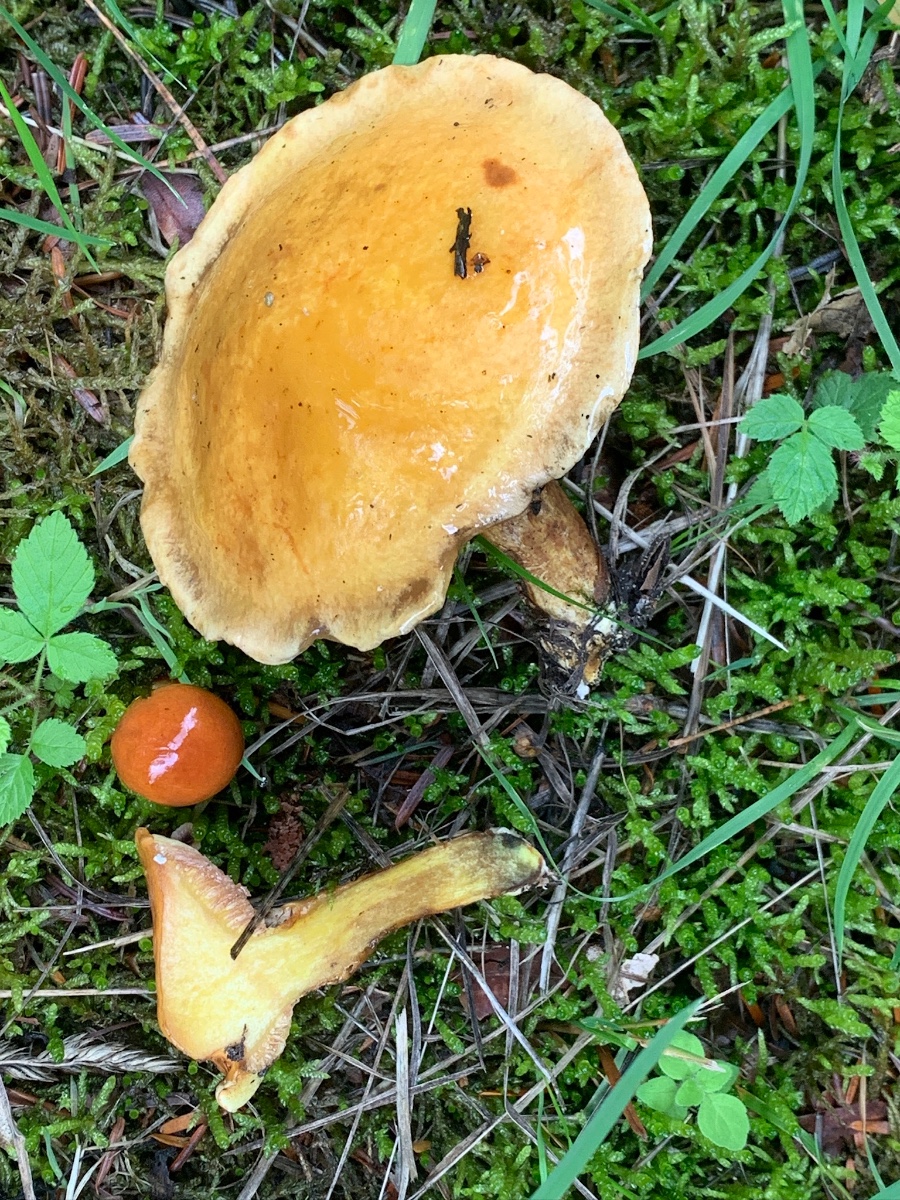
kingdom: Fungi
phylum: Basidiomycota
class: Agaricomycetes
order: Boletales
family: Suillaceae
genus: Suillus
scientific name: Suillus grevillei
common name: lærke-slimrørhat
